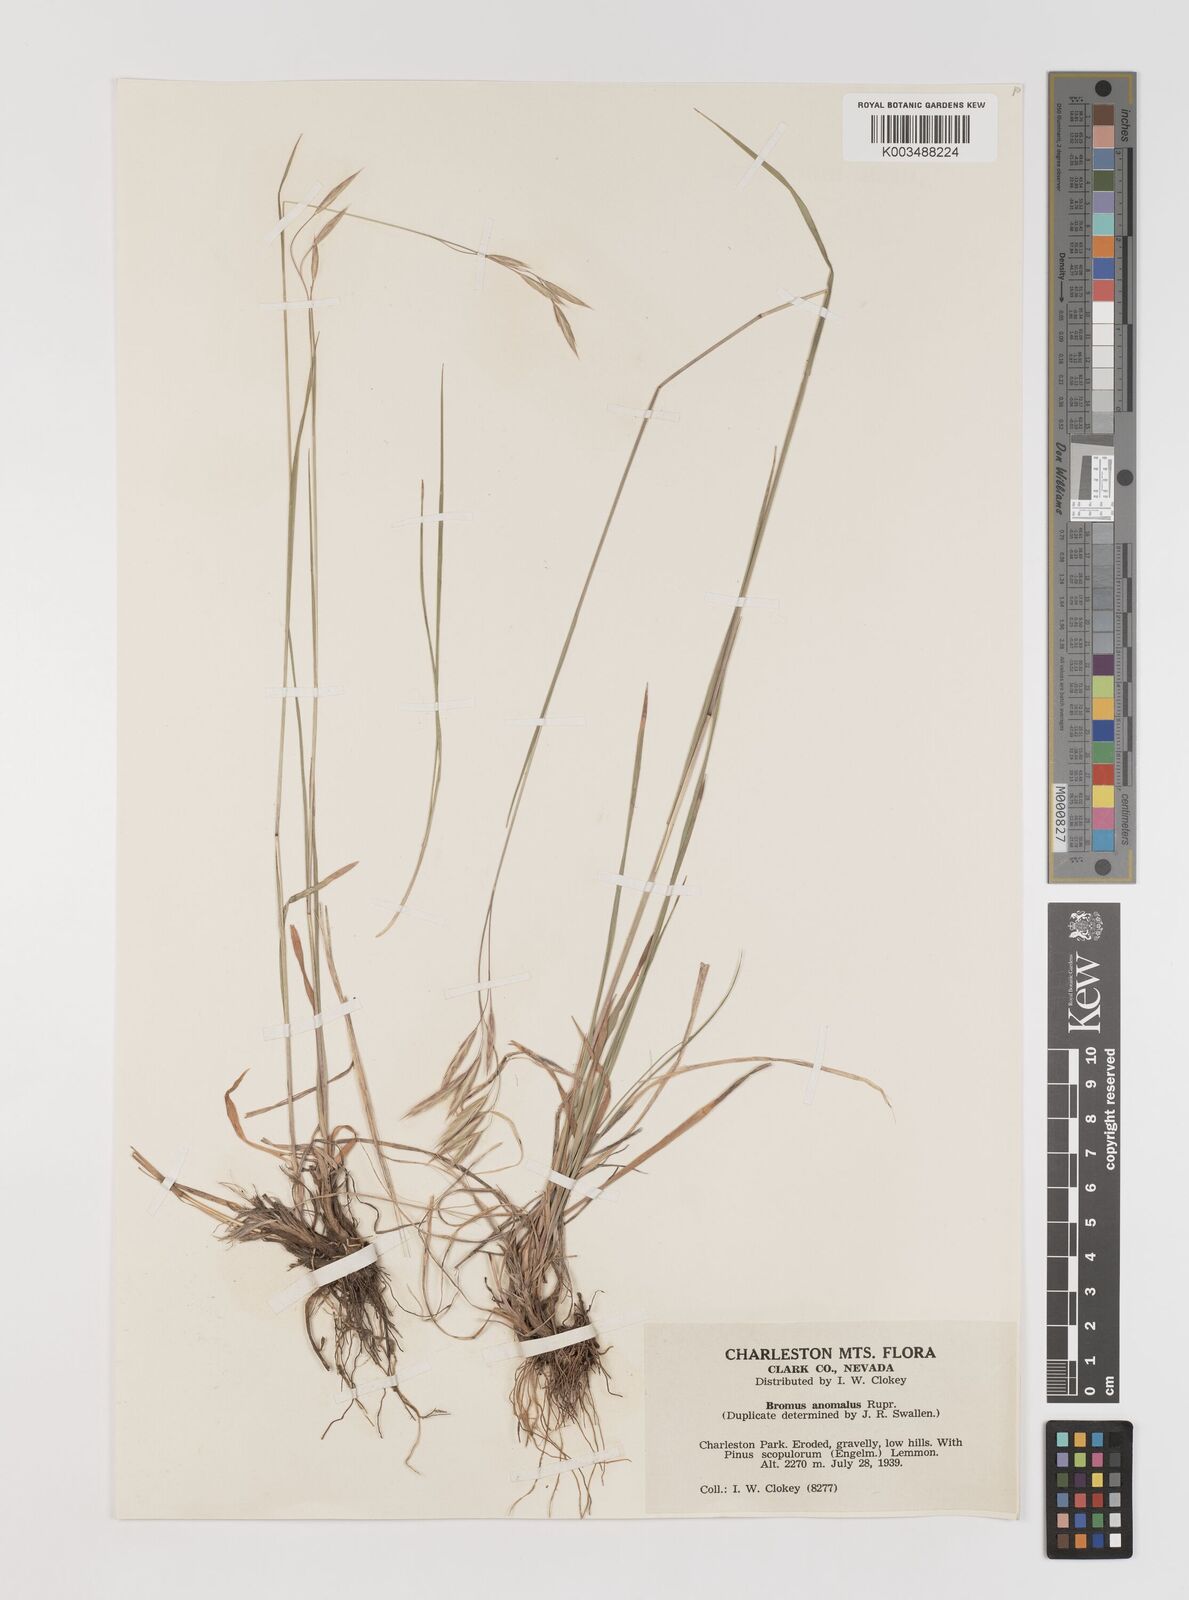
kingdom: Plantae
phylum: Tracheophyta
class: Liliopsida
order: Poales
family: Poaceae
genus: Bromus
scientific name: Bromus anomalus
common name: Nodding brome
